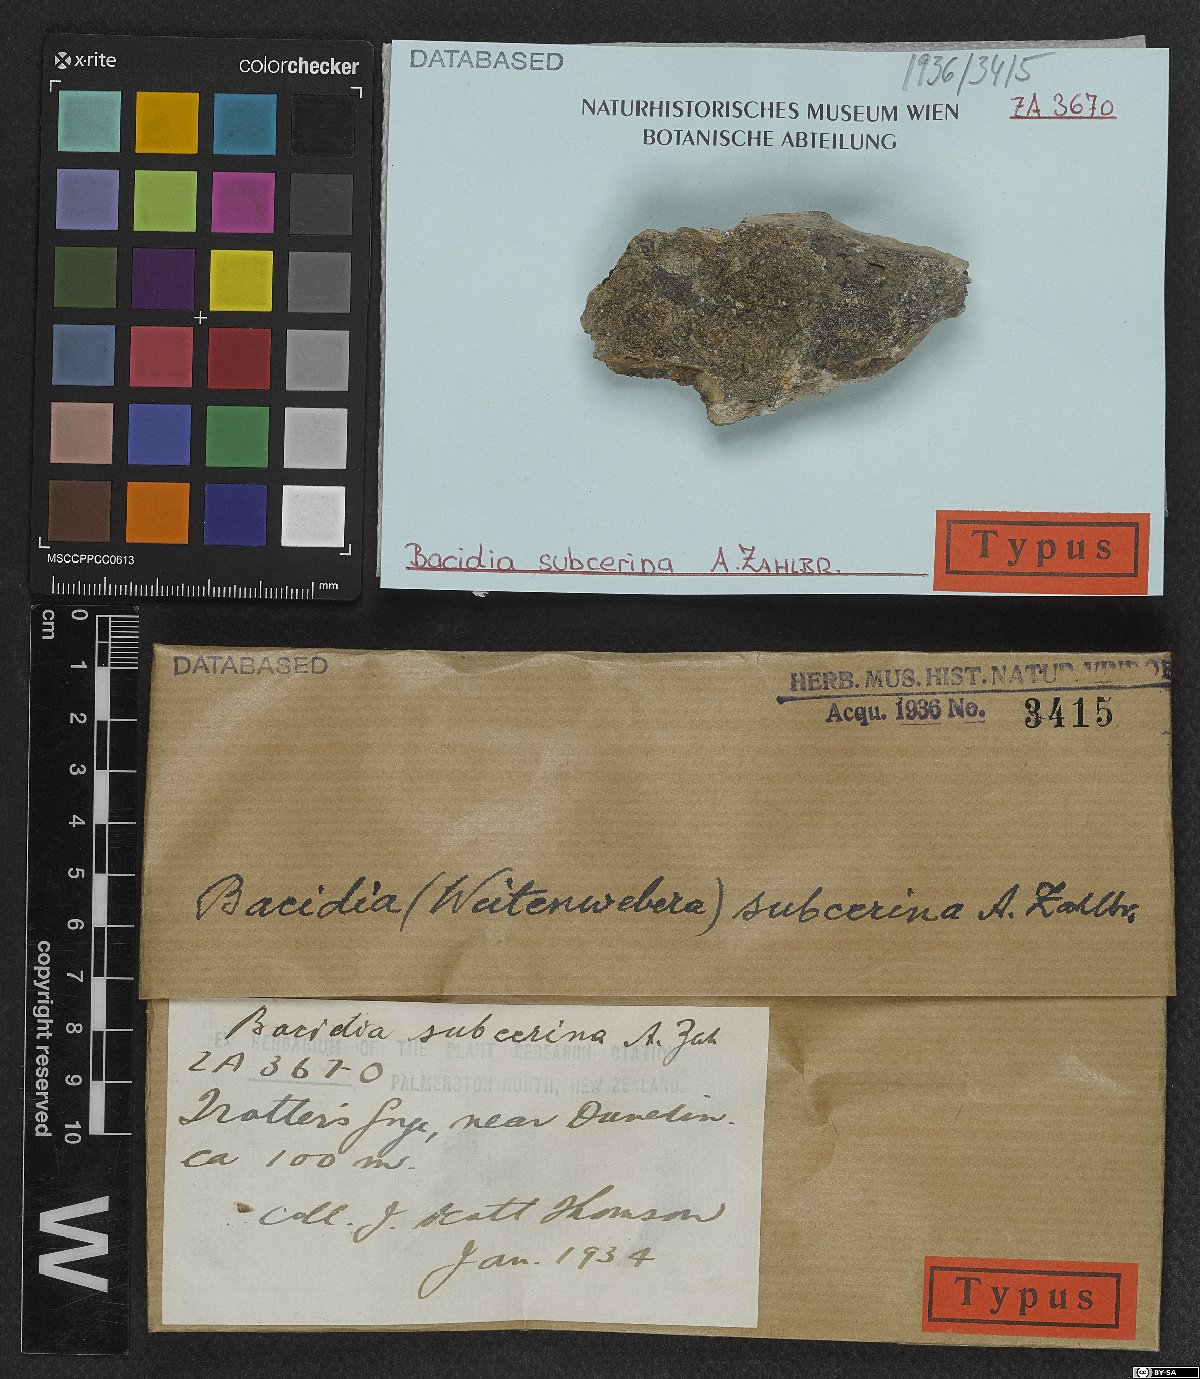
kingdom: Fungi
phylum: Ascomycota
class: Lecanoromycetes
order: Lecanorales
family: Ramalinaceae
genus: Bacidia
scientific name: Bacidia laurocerasi
